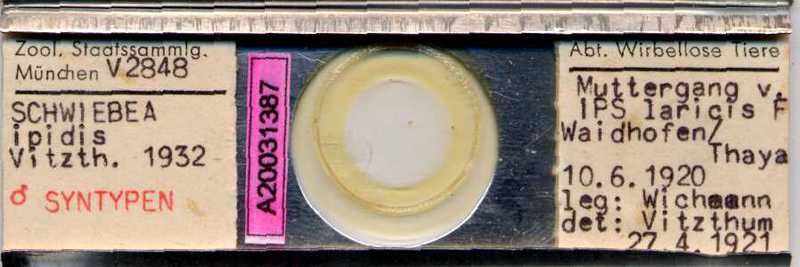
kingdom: Animalia
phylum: Arthropoda
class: Arachnida
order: Sarcoptiformes
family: Acaridae
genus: Schwiebea
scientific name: Schwiebea
